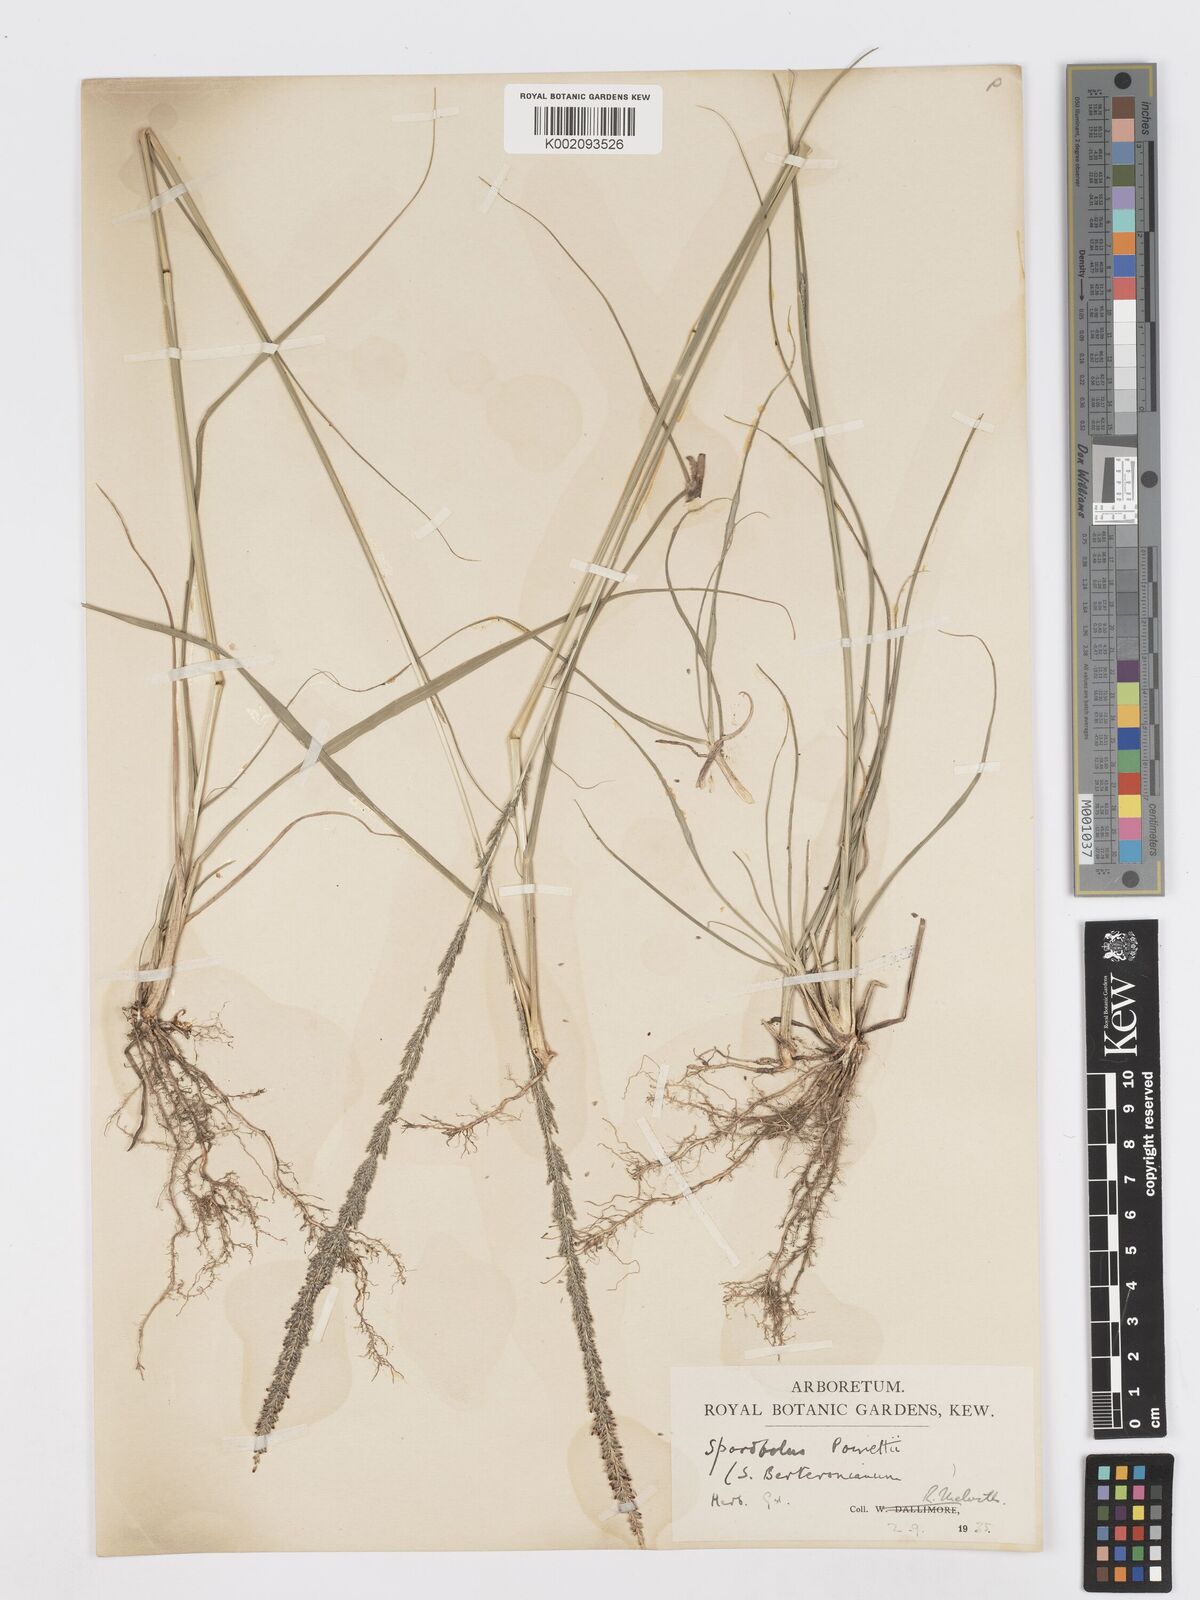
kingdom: Plantae
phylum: Tracheophyta
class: Liliopsida
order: Poales
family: Poaceae
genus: Sporobolus
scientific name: Sporobolus junceus
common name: Lizard grass
